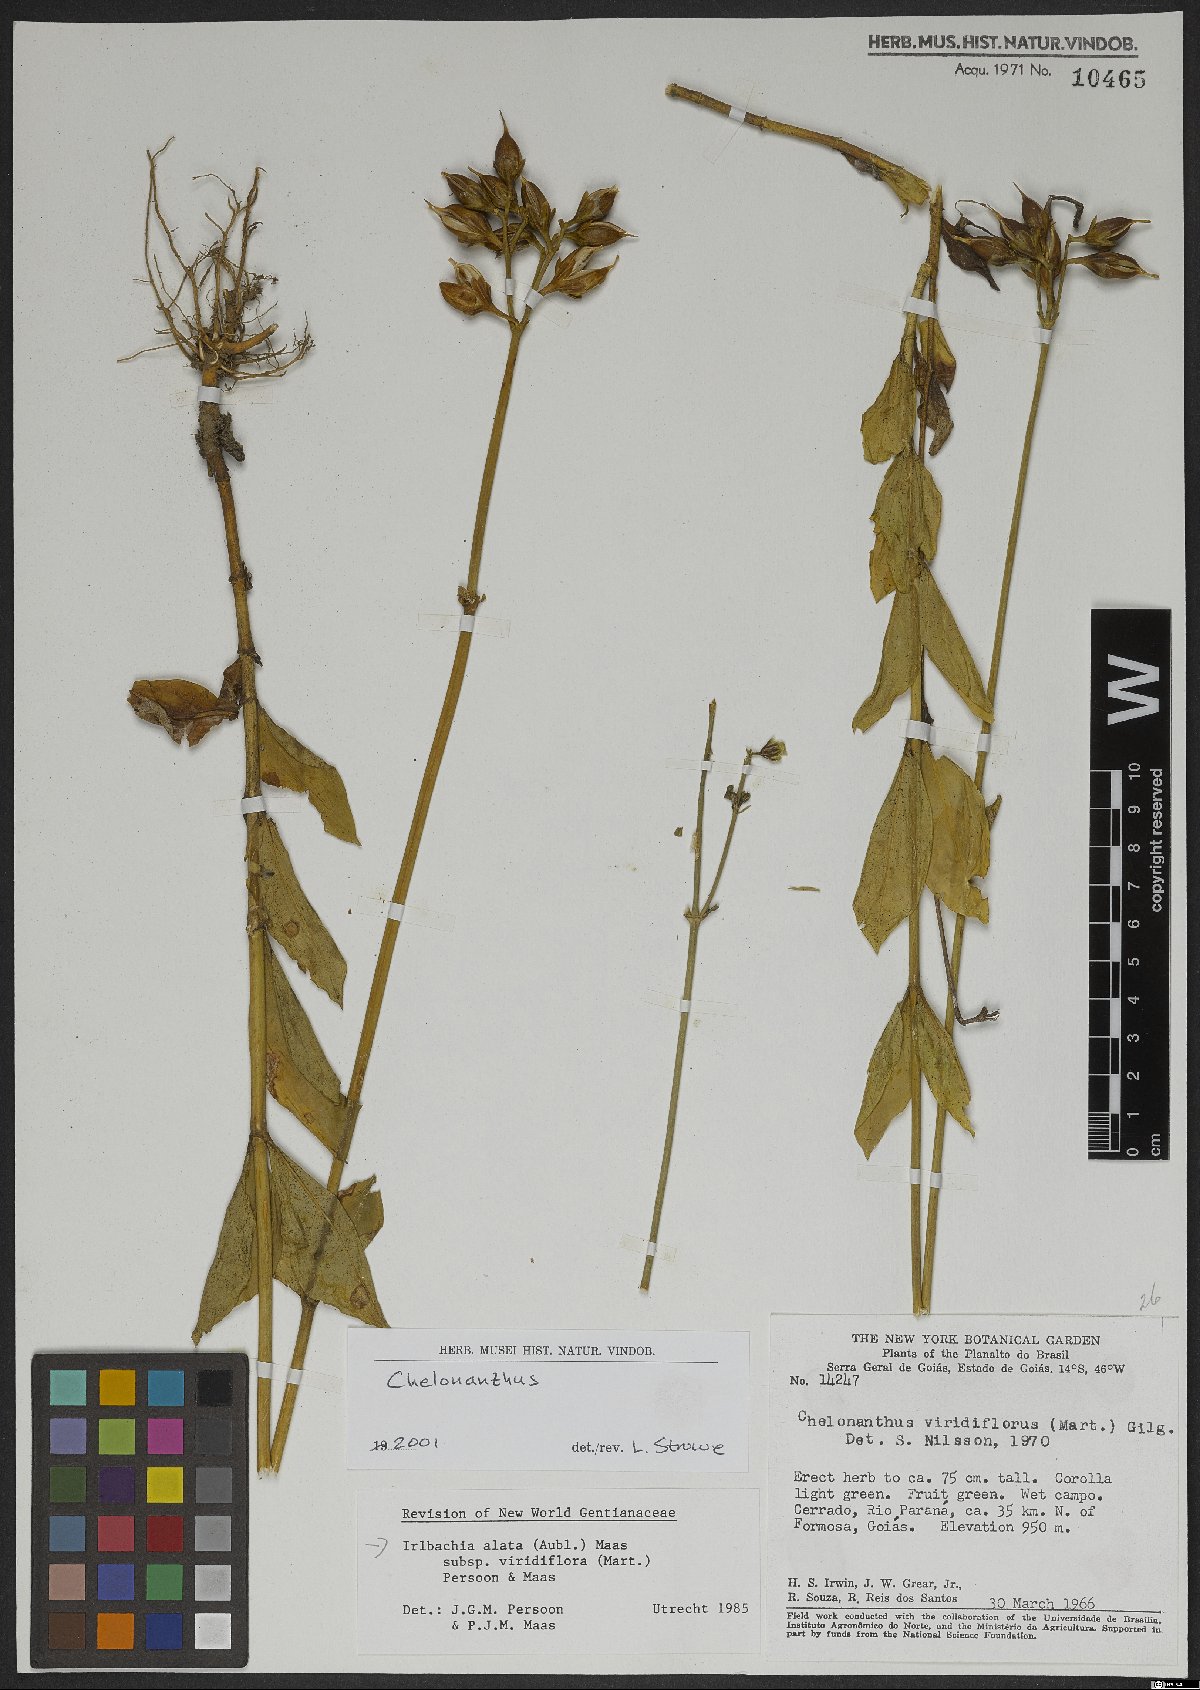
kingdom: Plantae
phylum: Tracheophyta
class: Magnoliopsida
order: Gentianales
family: Gentianaceae
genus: Chelonanthus
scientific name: Chelonanthus viridiflorus
